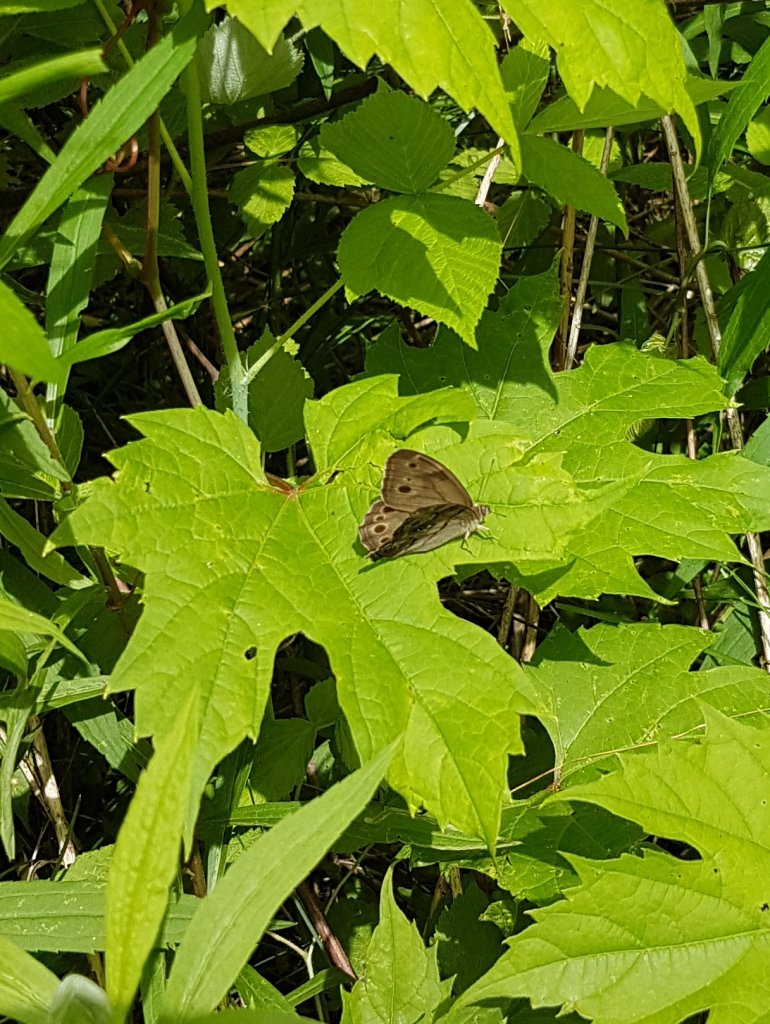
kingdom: Animalia
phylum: Arthropoda
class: Insecta
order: Lepidoptera
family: Nymphalidae
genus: Lethe
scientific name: Lethe anthedon
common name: Northern Pearly-Eye
